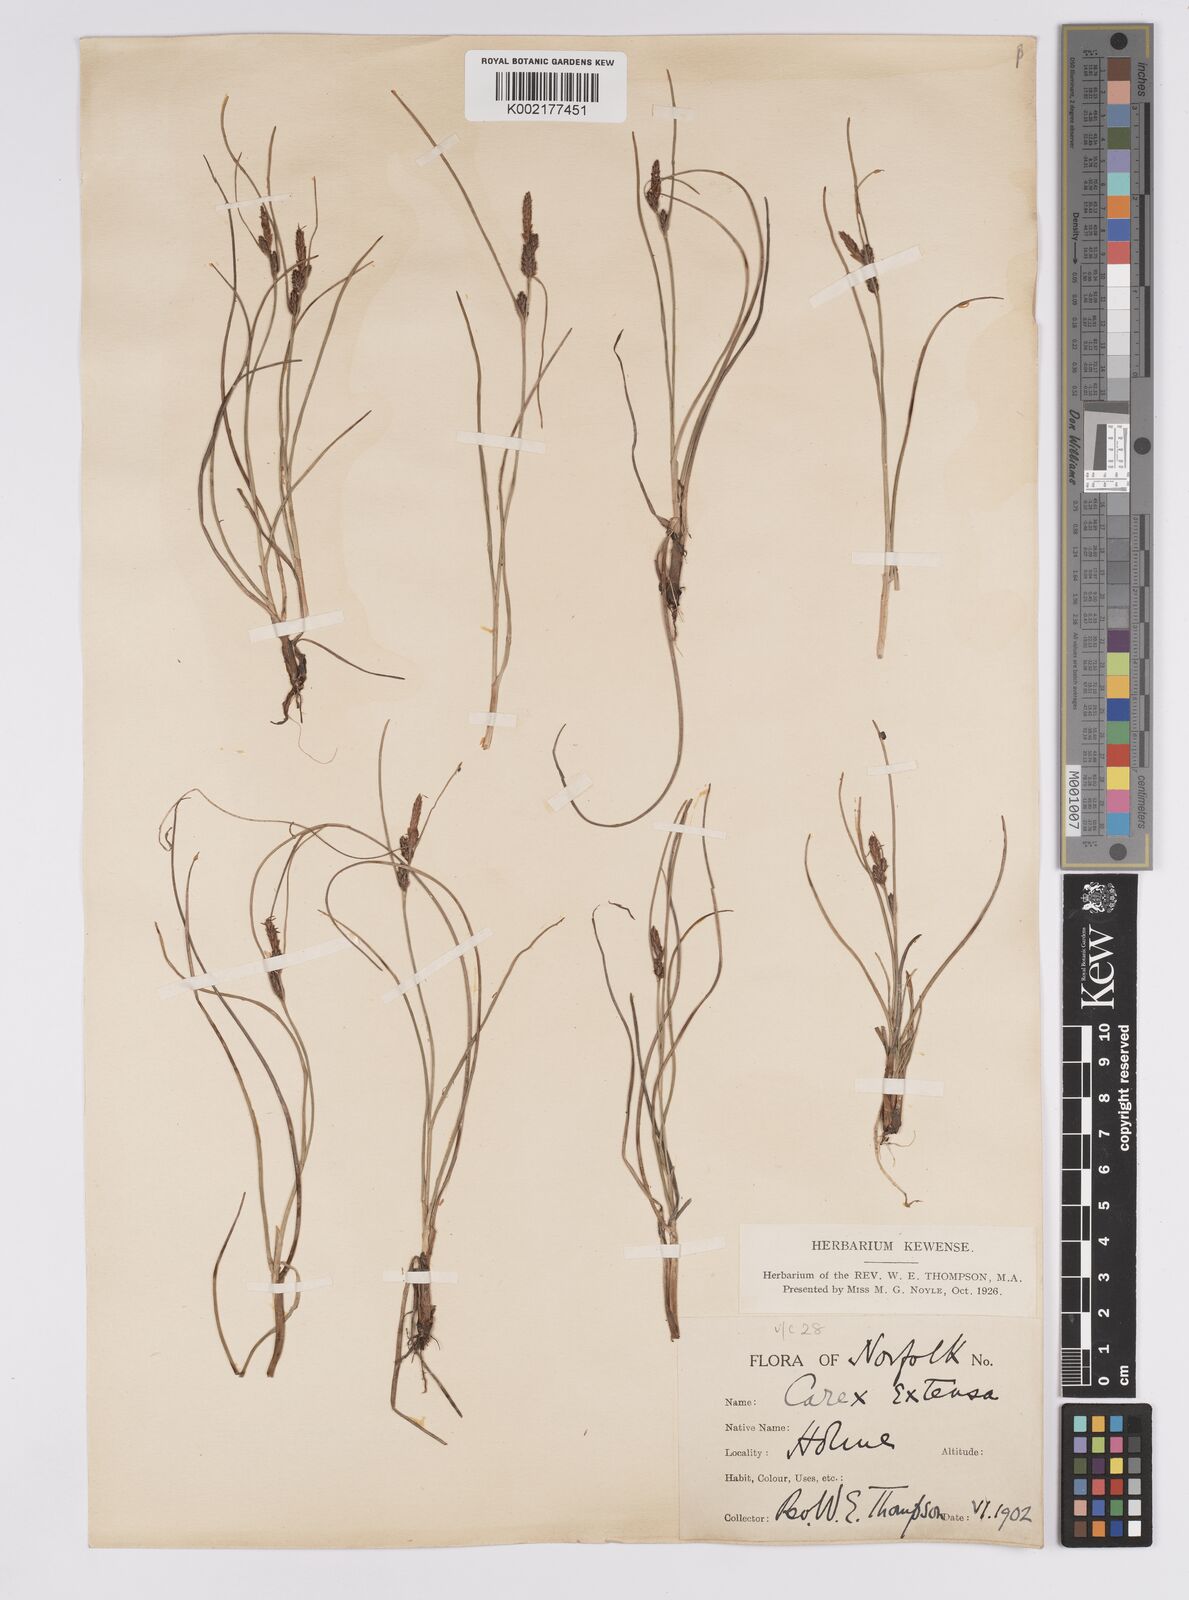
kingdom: Plantae
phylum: Tracheophyta
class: Liliopsida
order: Poales
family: Cyperaceae
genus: Carex
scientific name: Carex extensa
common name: Long-bracted sedge
